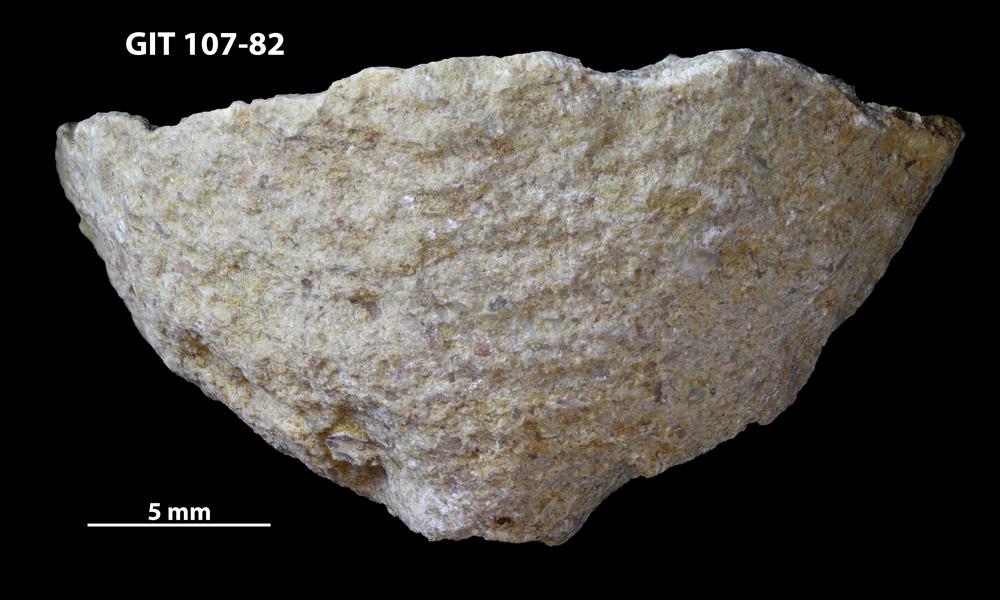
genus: Amphorichnus
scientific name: Amphorichnus
